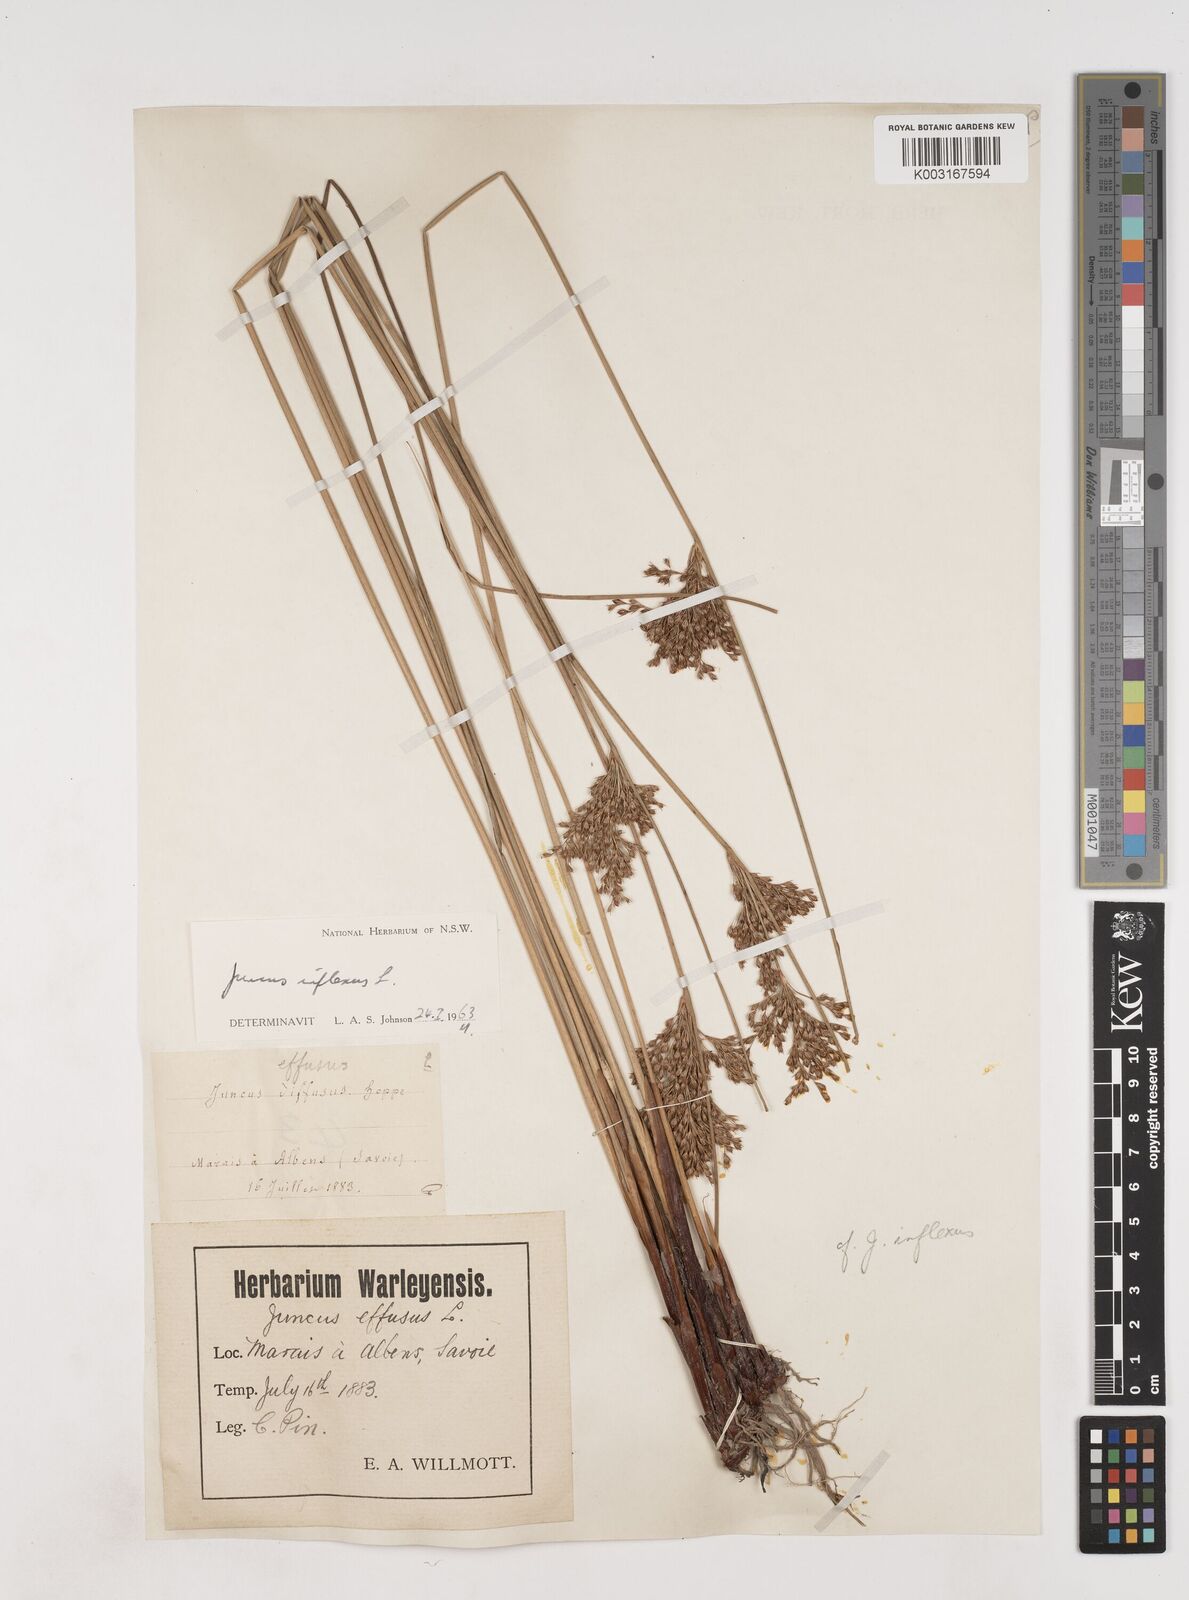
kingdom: Plantae
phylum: Tracheophyta
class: Liliopsida
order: Poales
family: Juncaceae
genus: Juncus
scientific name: Juncus inflexus
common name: Hard rush
